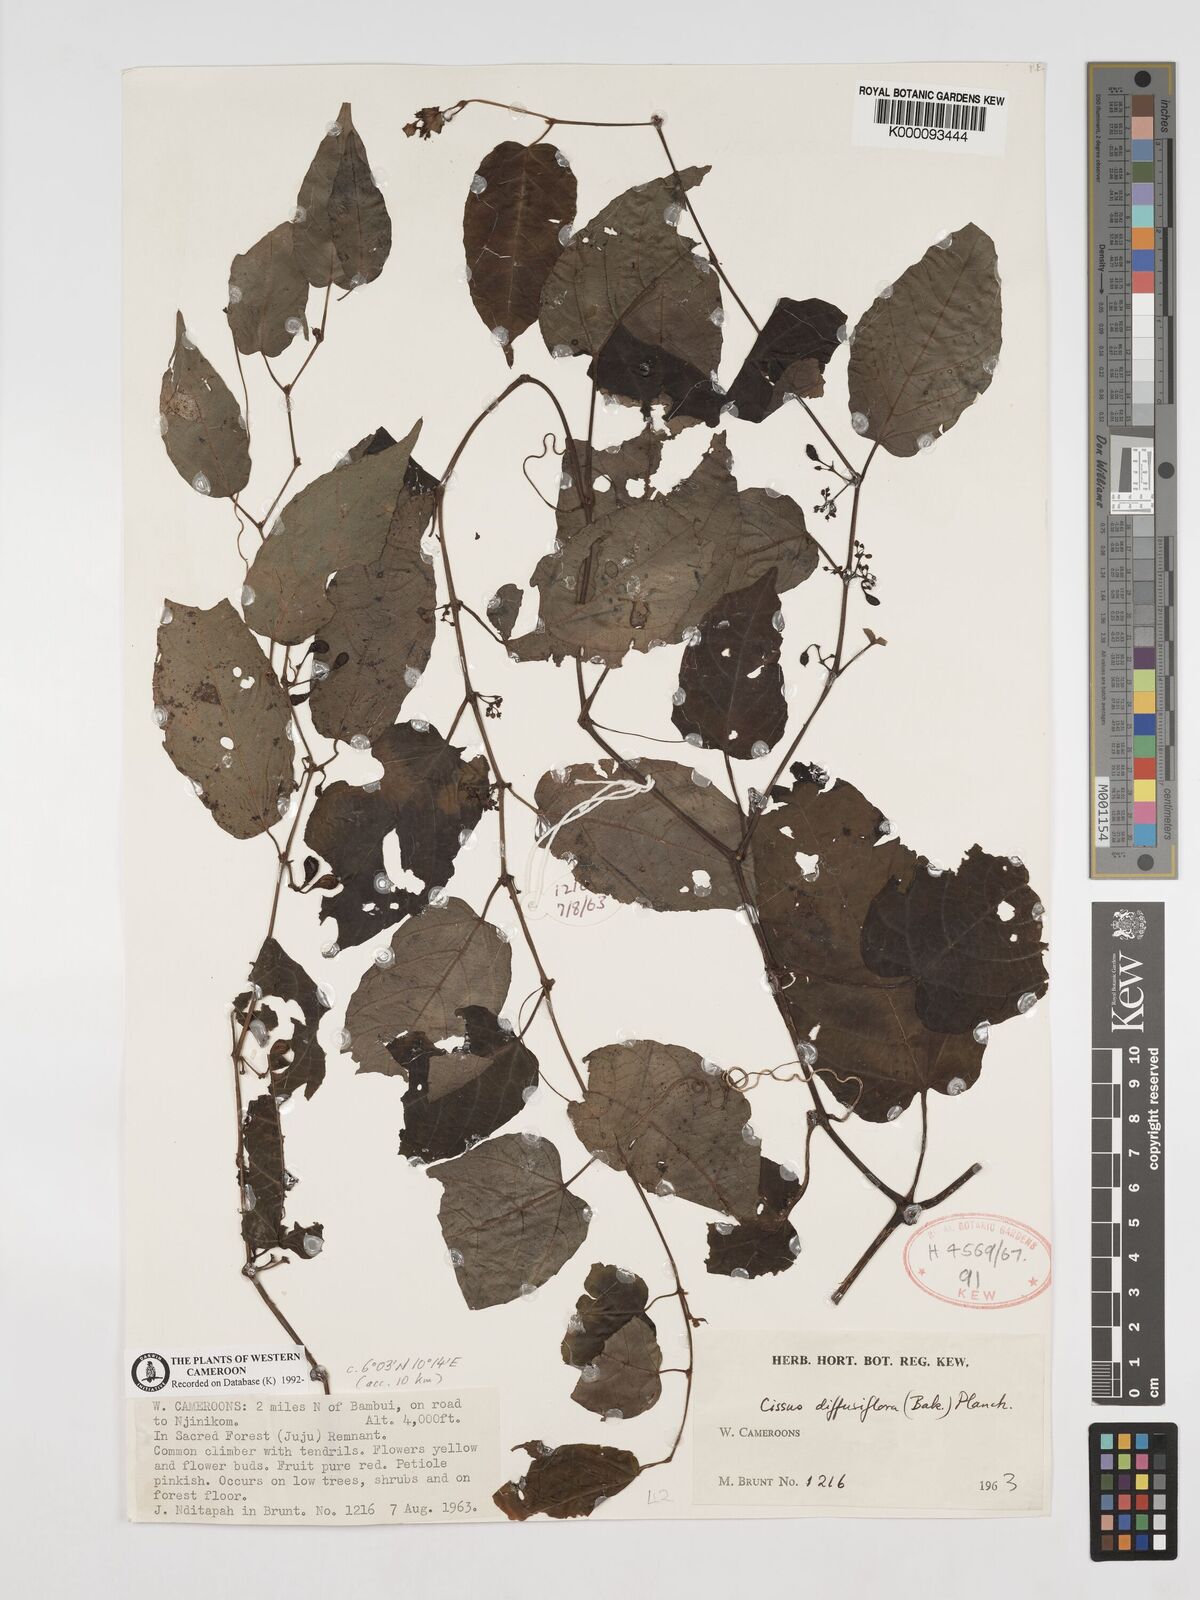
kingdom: Plantae
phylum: Tracheophyta
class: Magnoliopsida
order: Vitales
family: Vitaceae
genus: Cissus
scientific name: Cissus diffusiflora
